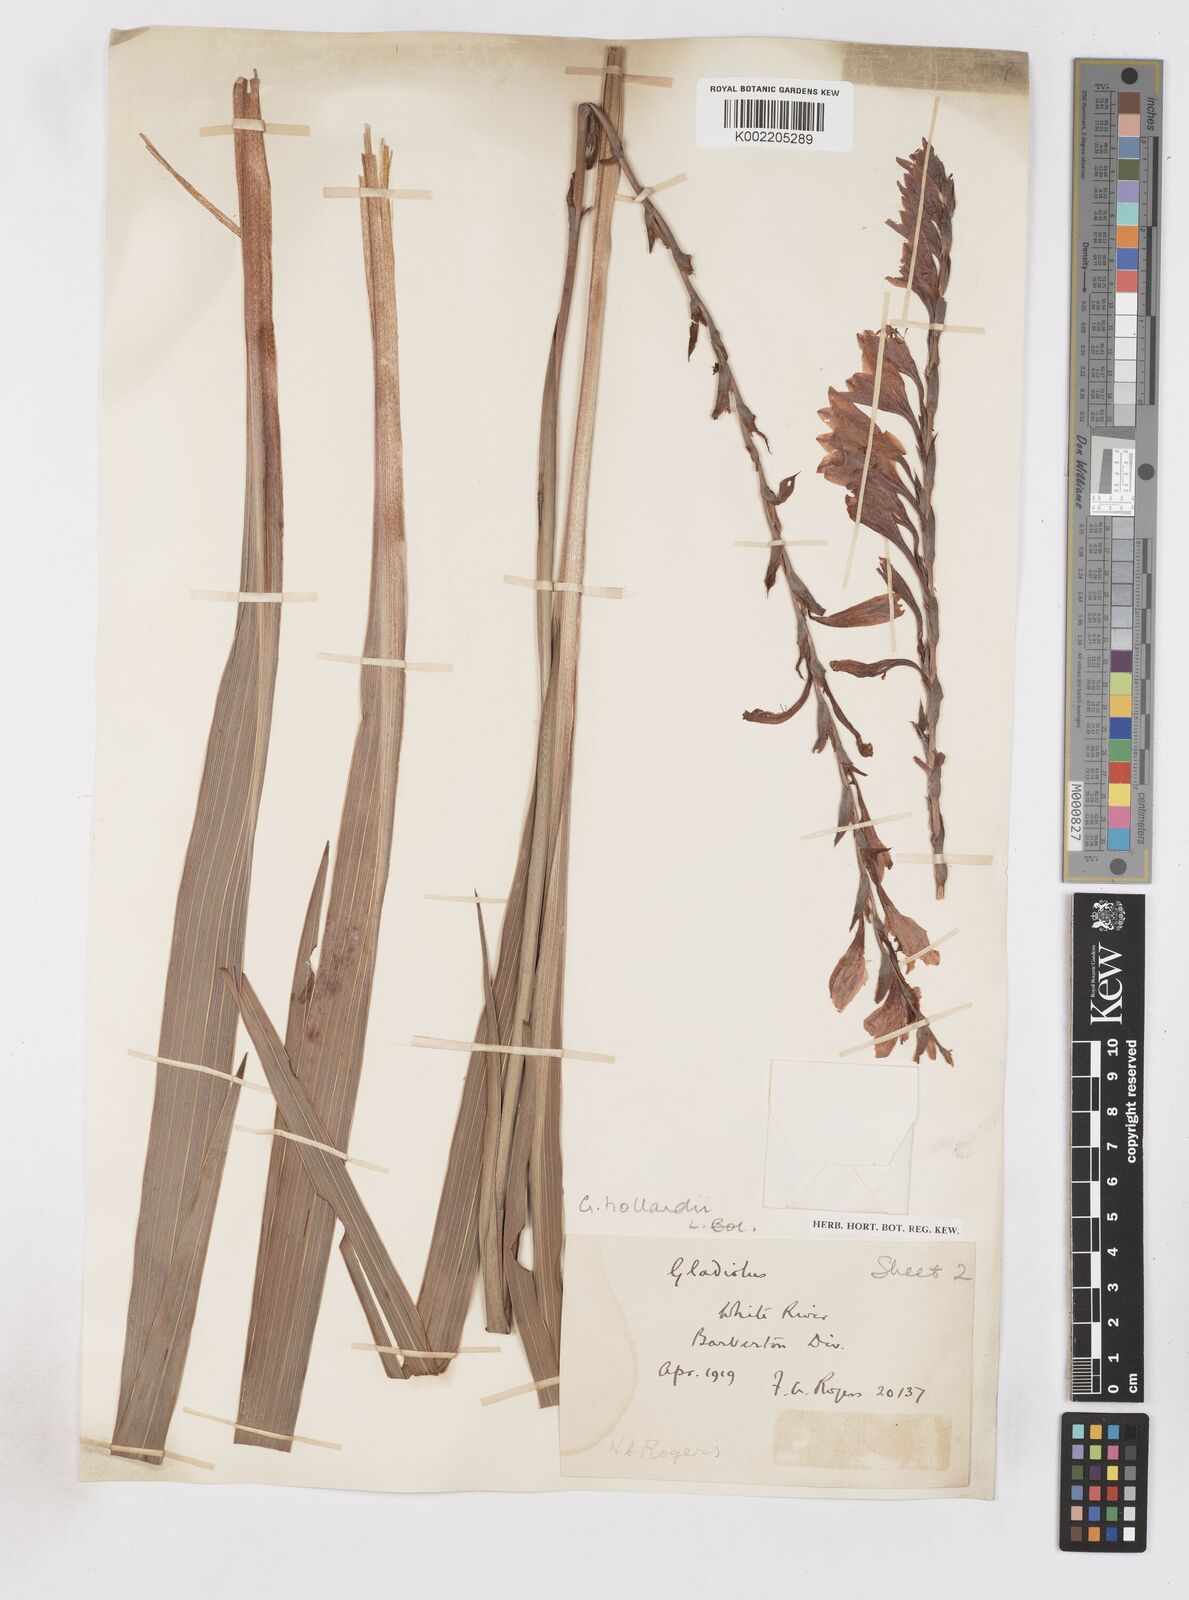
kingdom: Plantae
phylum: Tracheophyta
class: Liliopsida
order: Asparagales
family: Iridaceae
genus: Gladiolus
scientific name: Gladiolus hollandii
